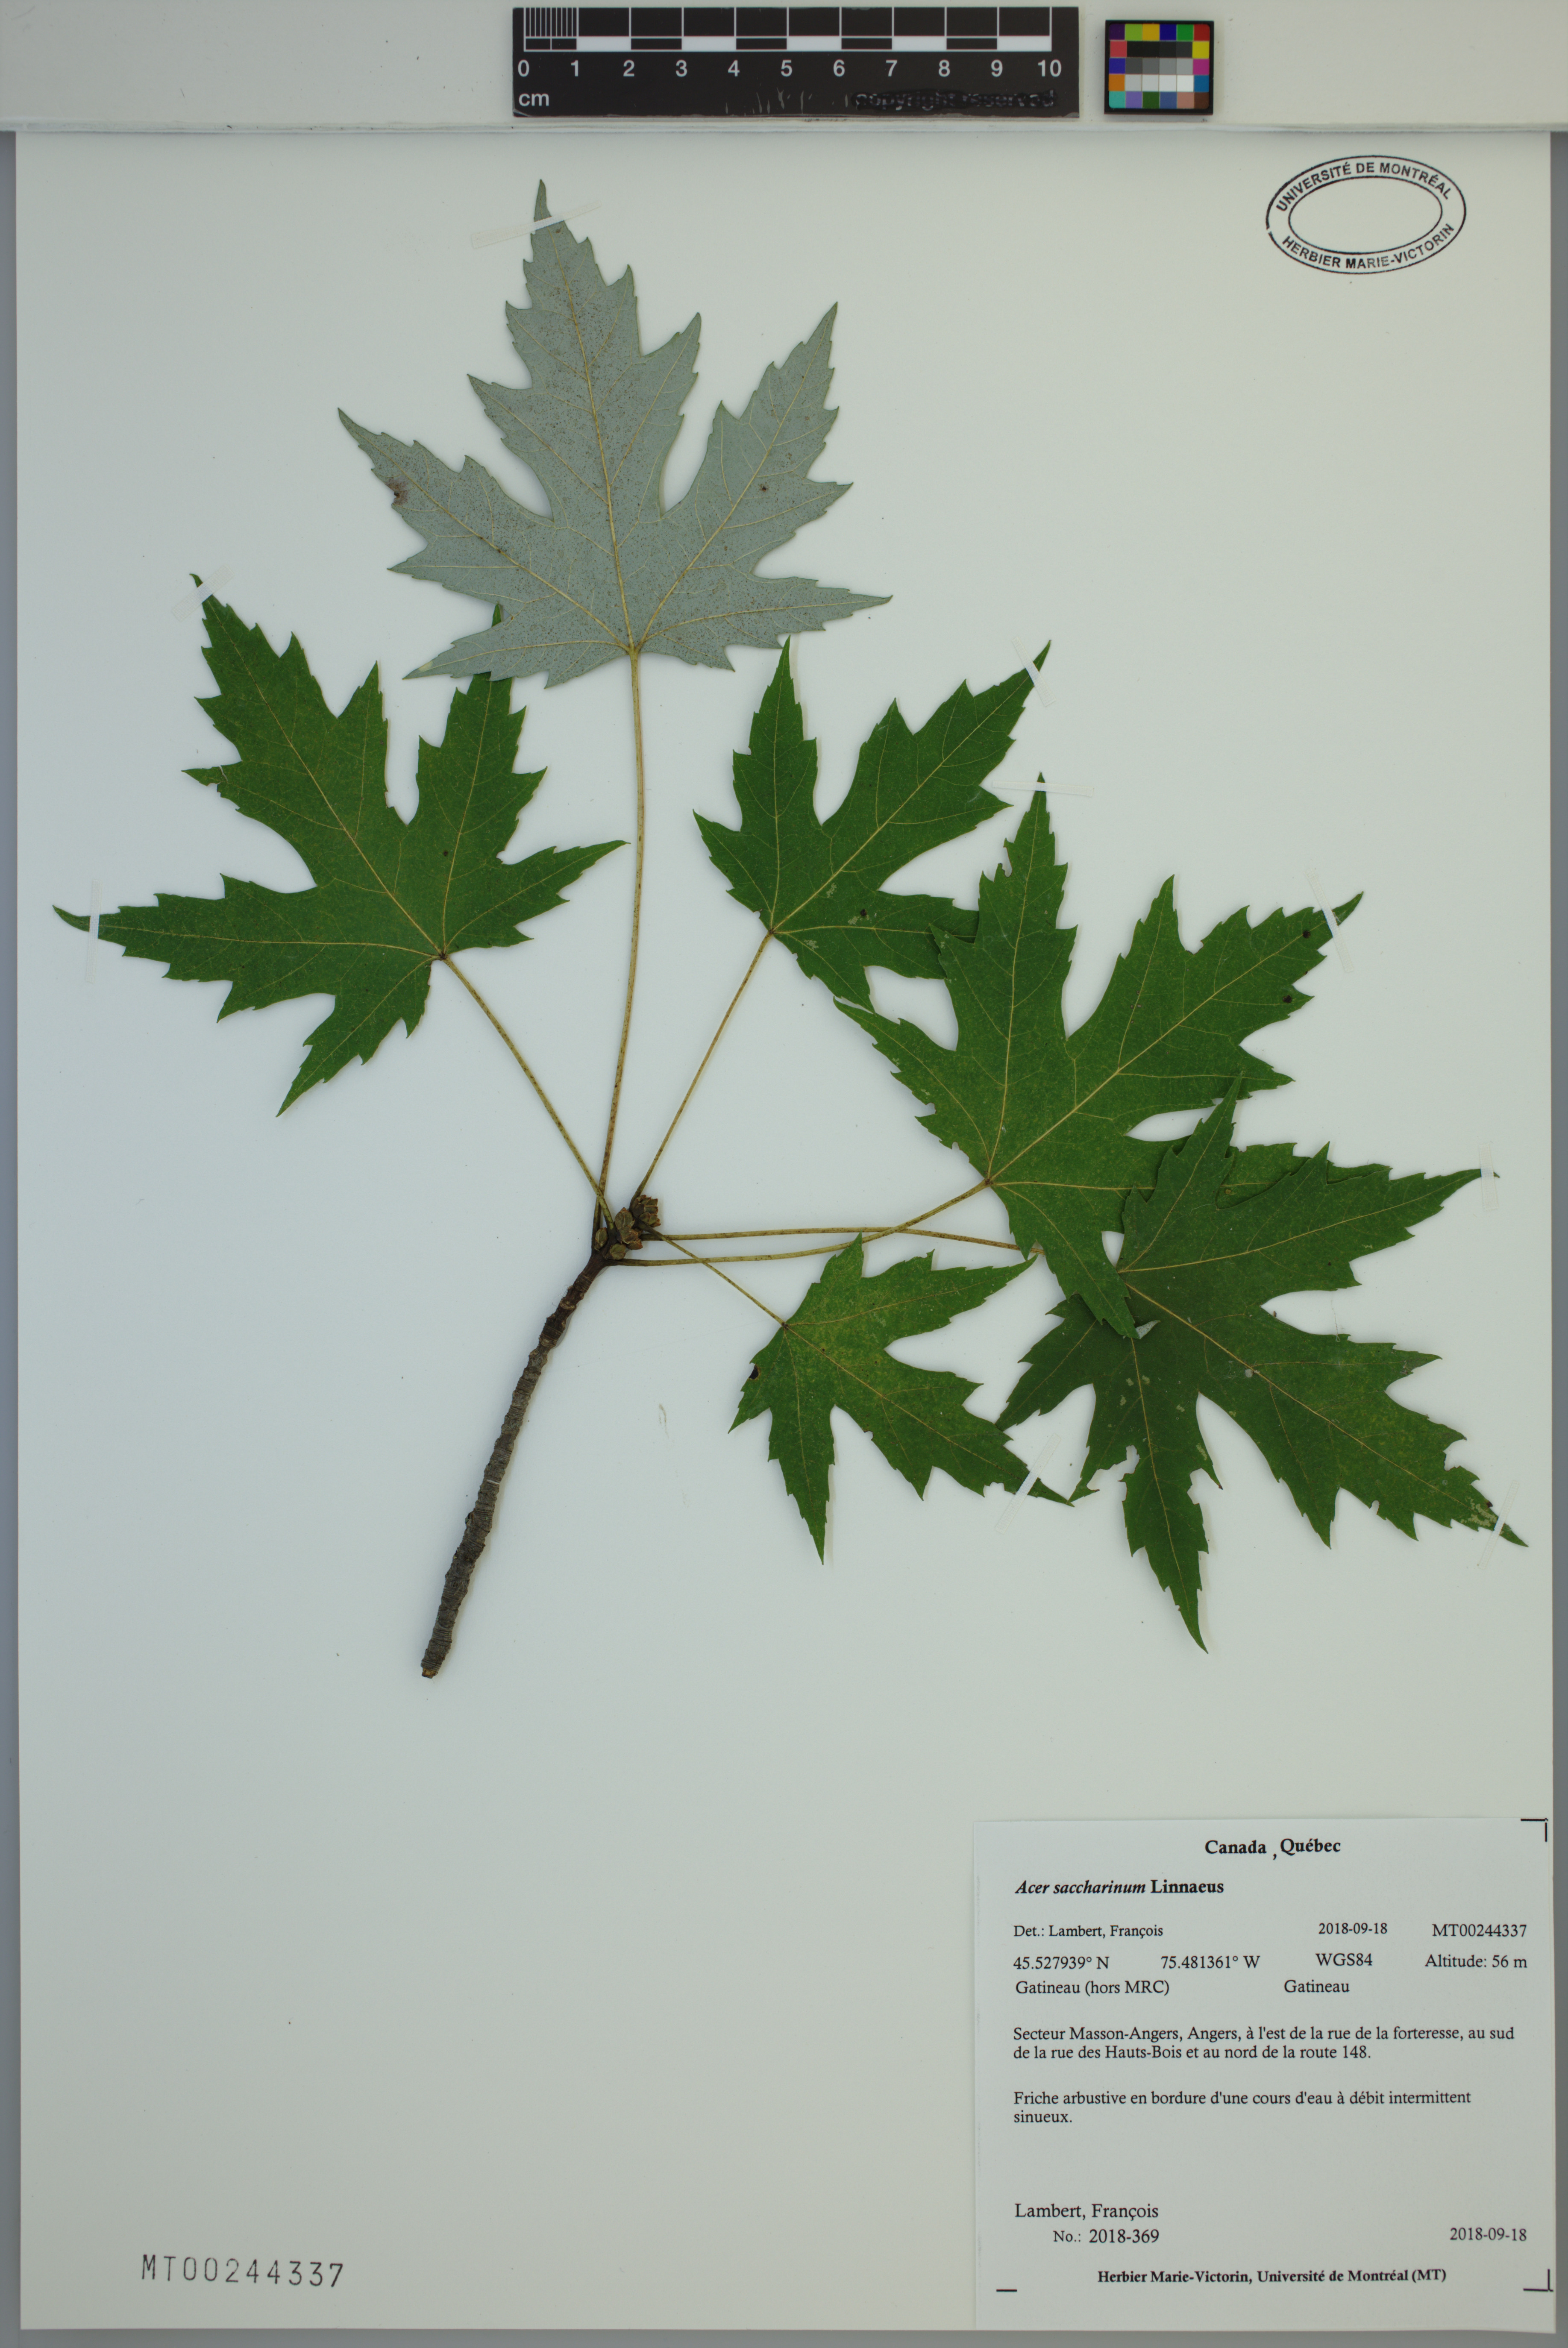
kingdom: Plantae
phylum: Tracheophyta
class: Magnoliopsida
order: Sapindales
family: Sapindaceae
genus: Acer
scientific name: Acer saccharinum
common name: Silver maple
